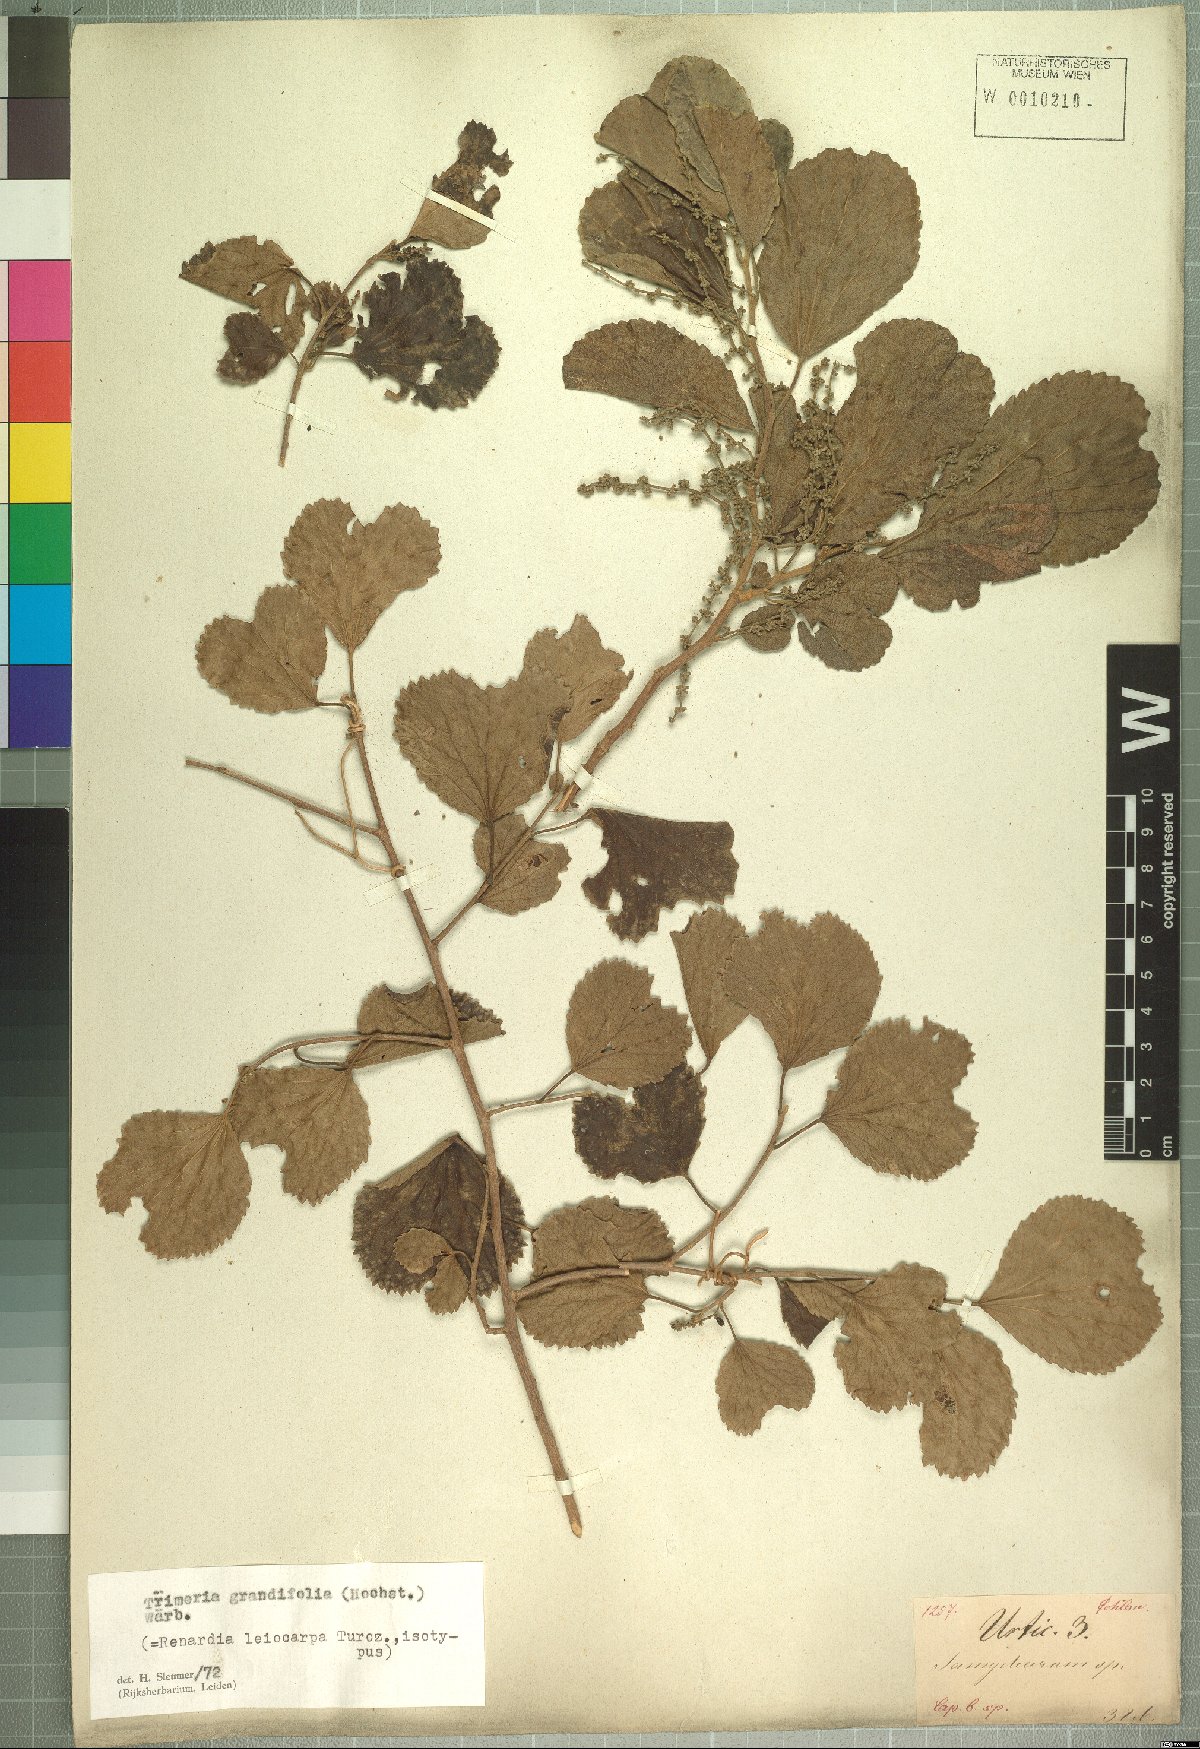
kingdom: Plantae
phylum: Tracheophyta
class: Magnoliopsida
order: Malpighiales
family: Salicaceae
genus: Trimeria
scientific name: Trimeria grandifolia
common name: Wild mulberry
